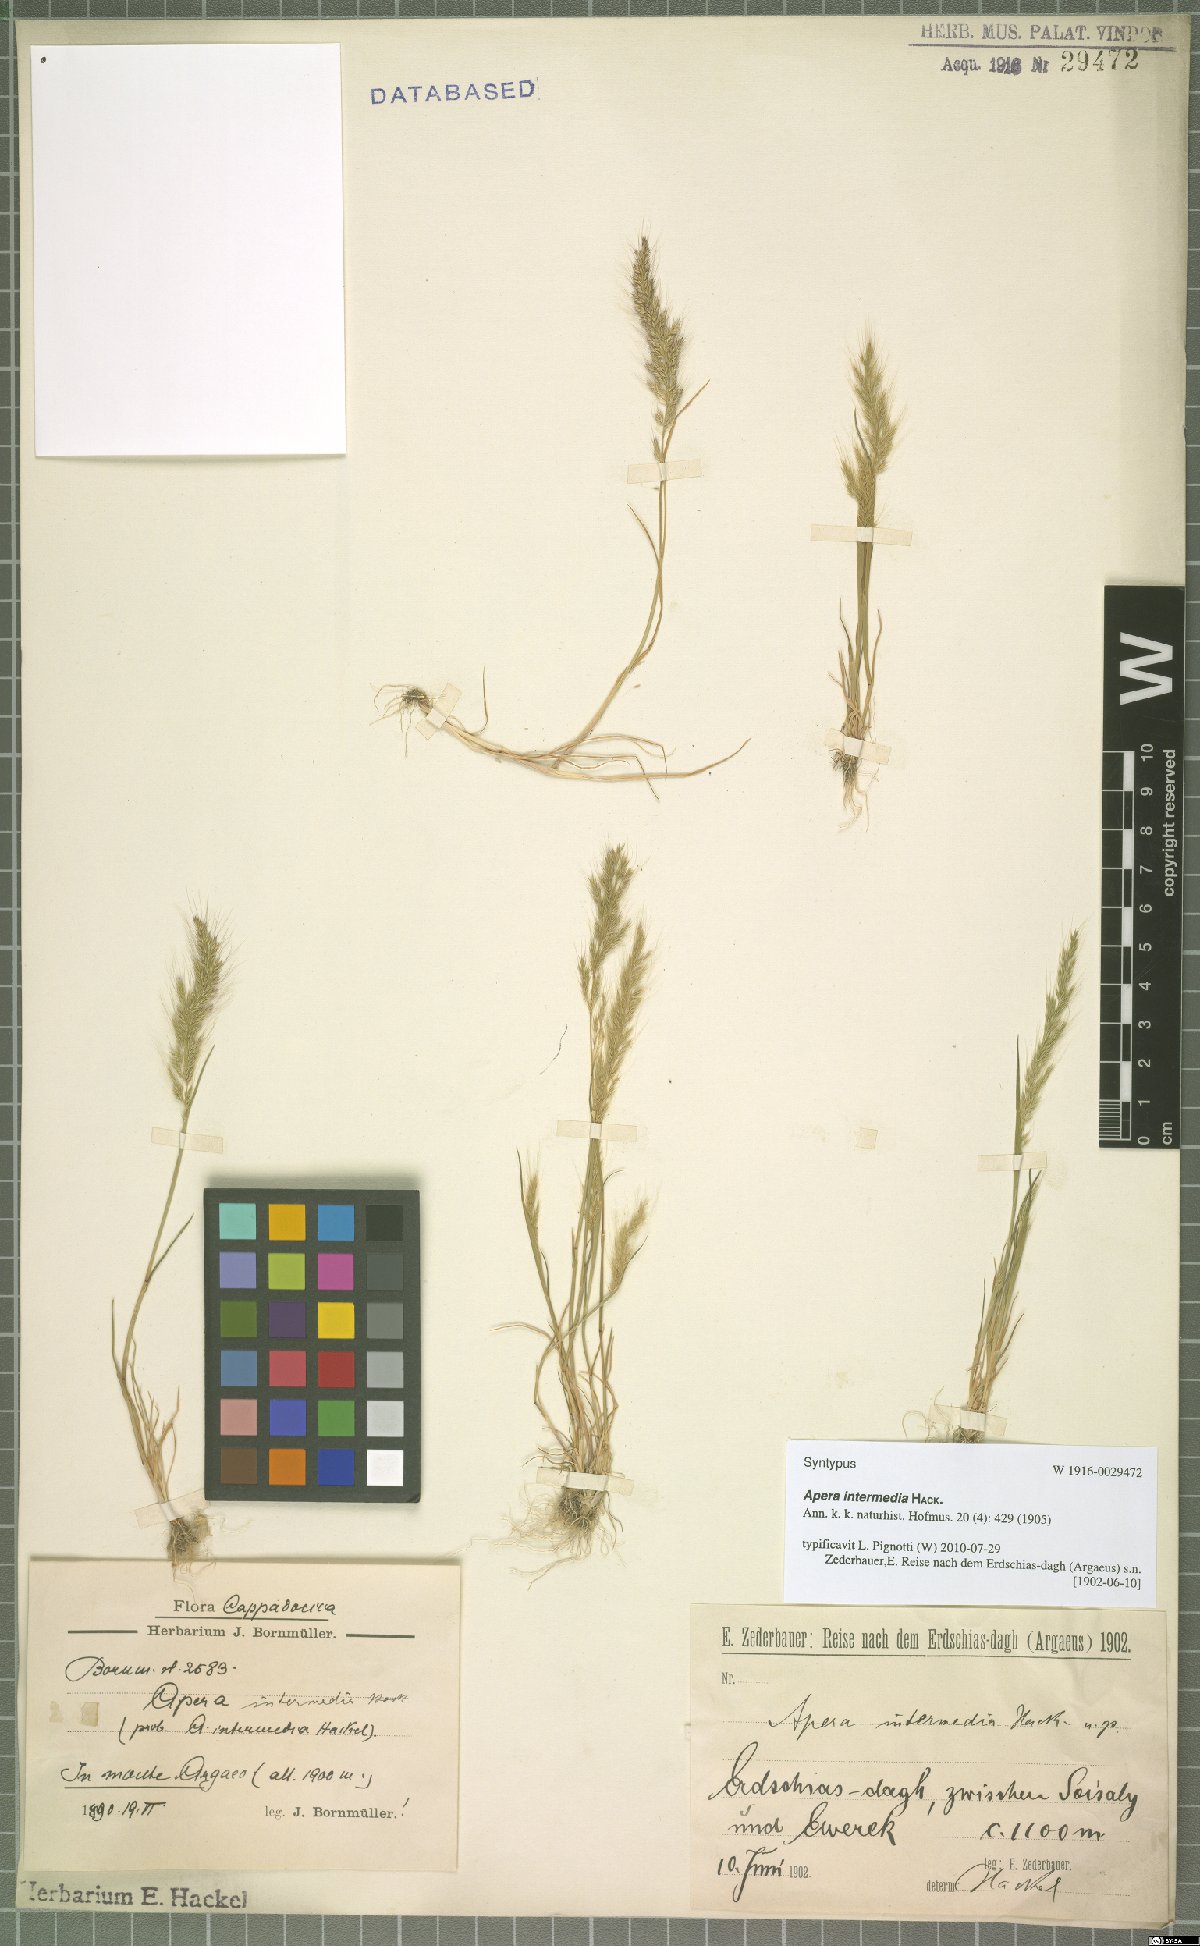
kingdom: Plantae
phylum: Tracheophyta
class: Liliopsida
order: Poales
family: Poaceae
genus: Apera
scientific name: Apera intermedia
